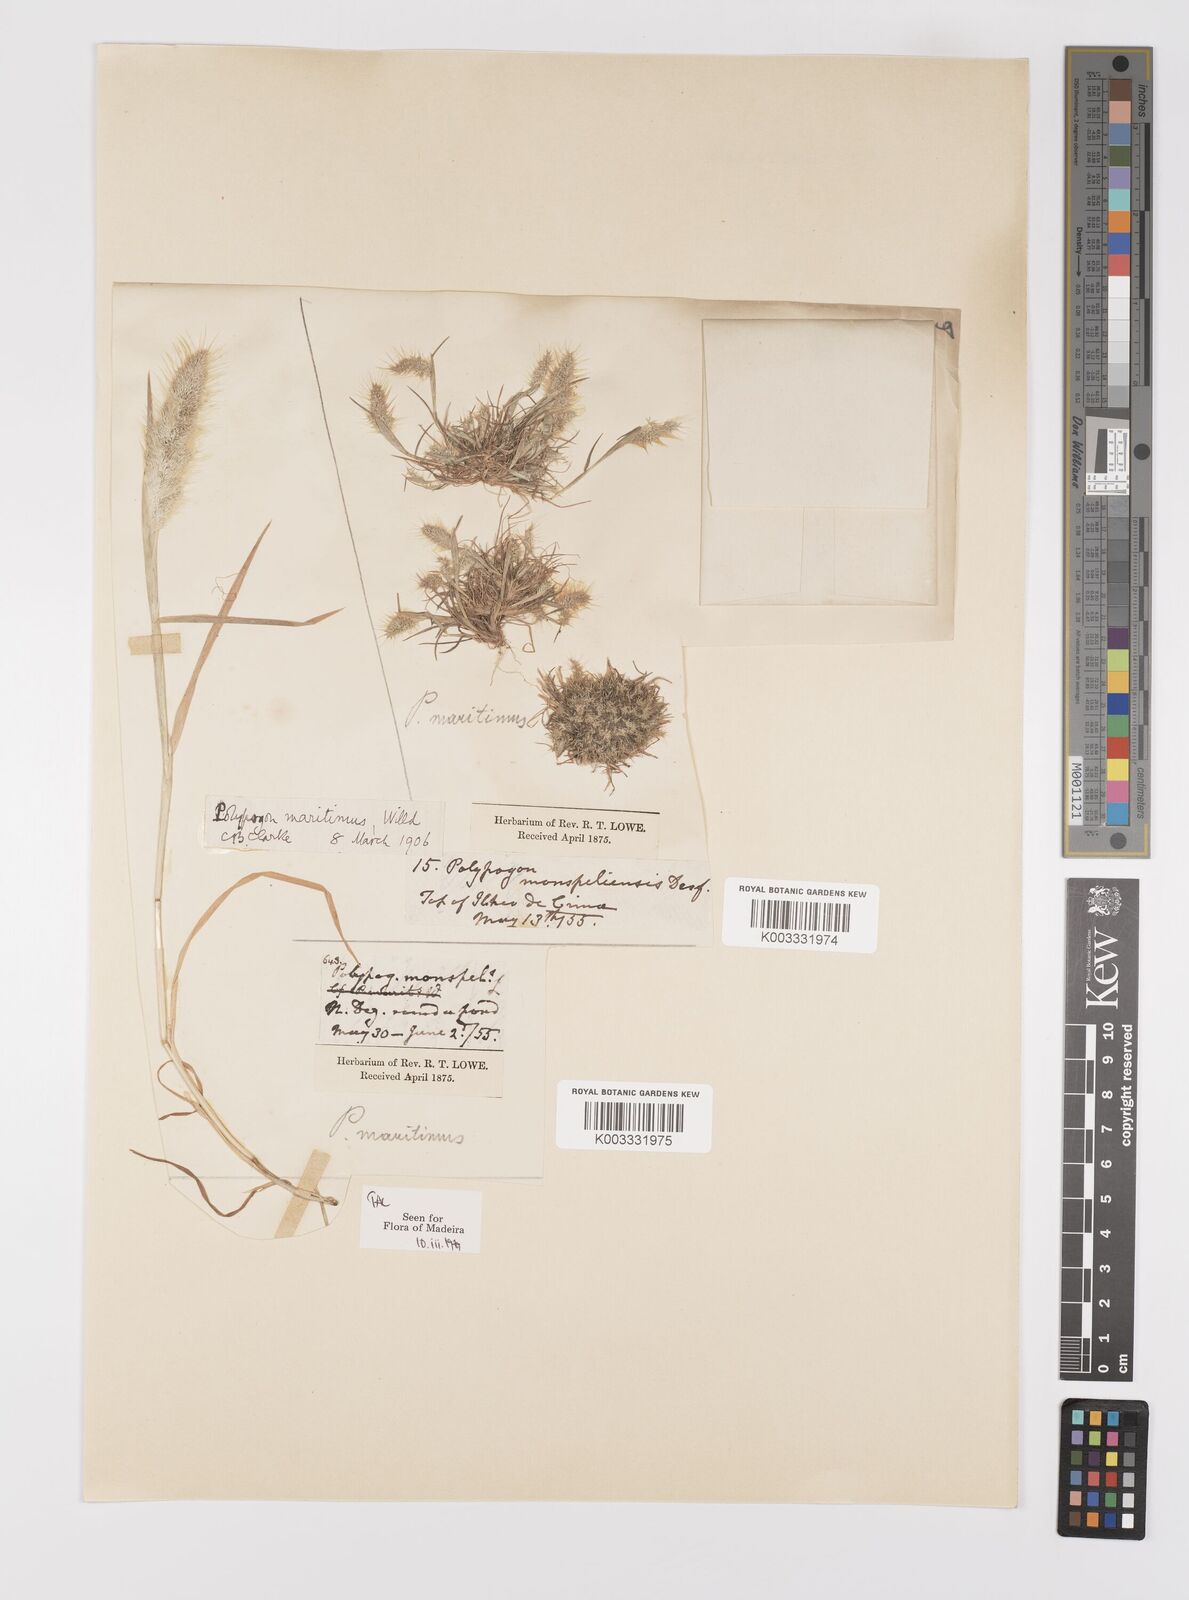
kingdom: Plantae
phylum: Tracheophyta
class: Liliopsida
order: Poales
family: Poaceae
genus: Polypogon
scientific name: Polypogon maritimus
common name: Mediterranean rabbitsfoot grass
